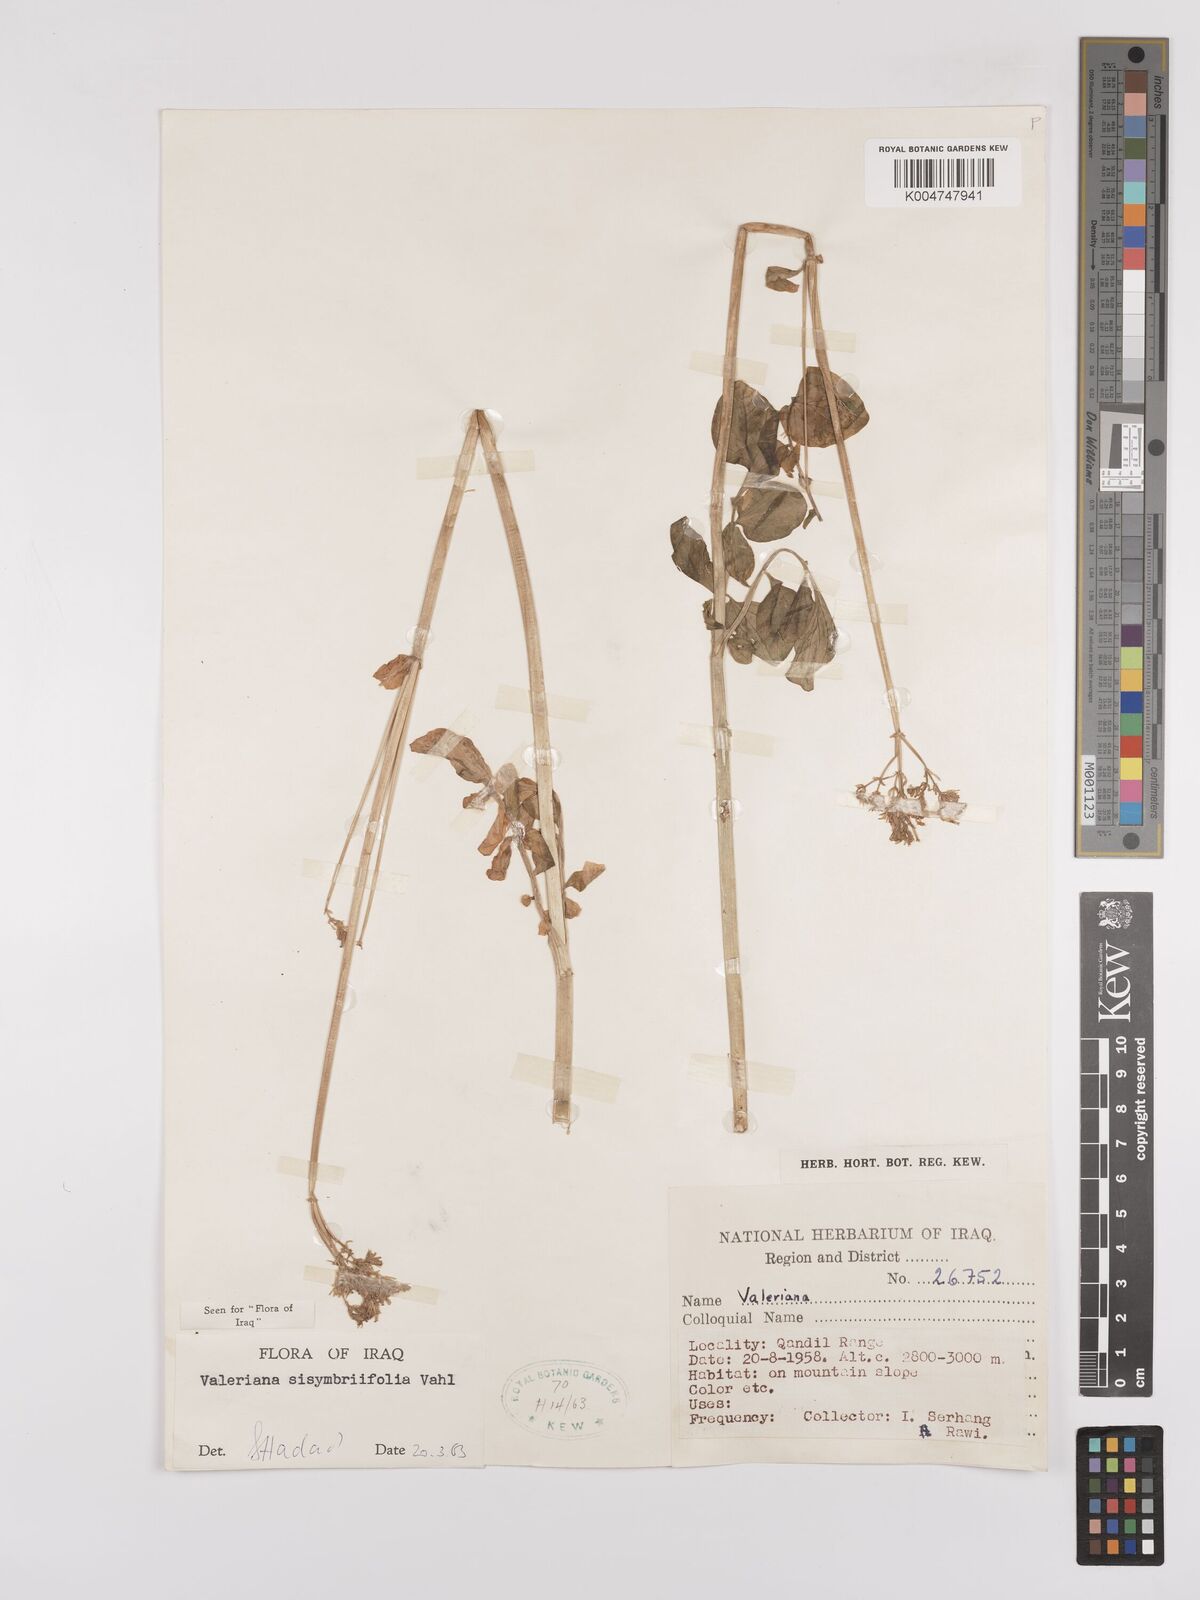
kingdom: Plantae
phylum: Tracheophyta
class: Magnoliopsida
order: Dipsacales
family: Caprifoliaceae
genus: Valeriana
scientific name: Valeriana
